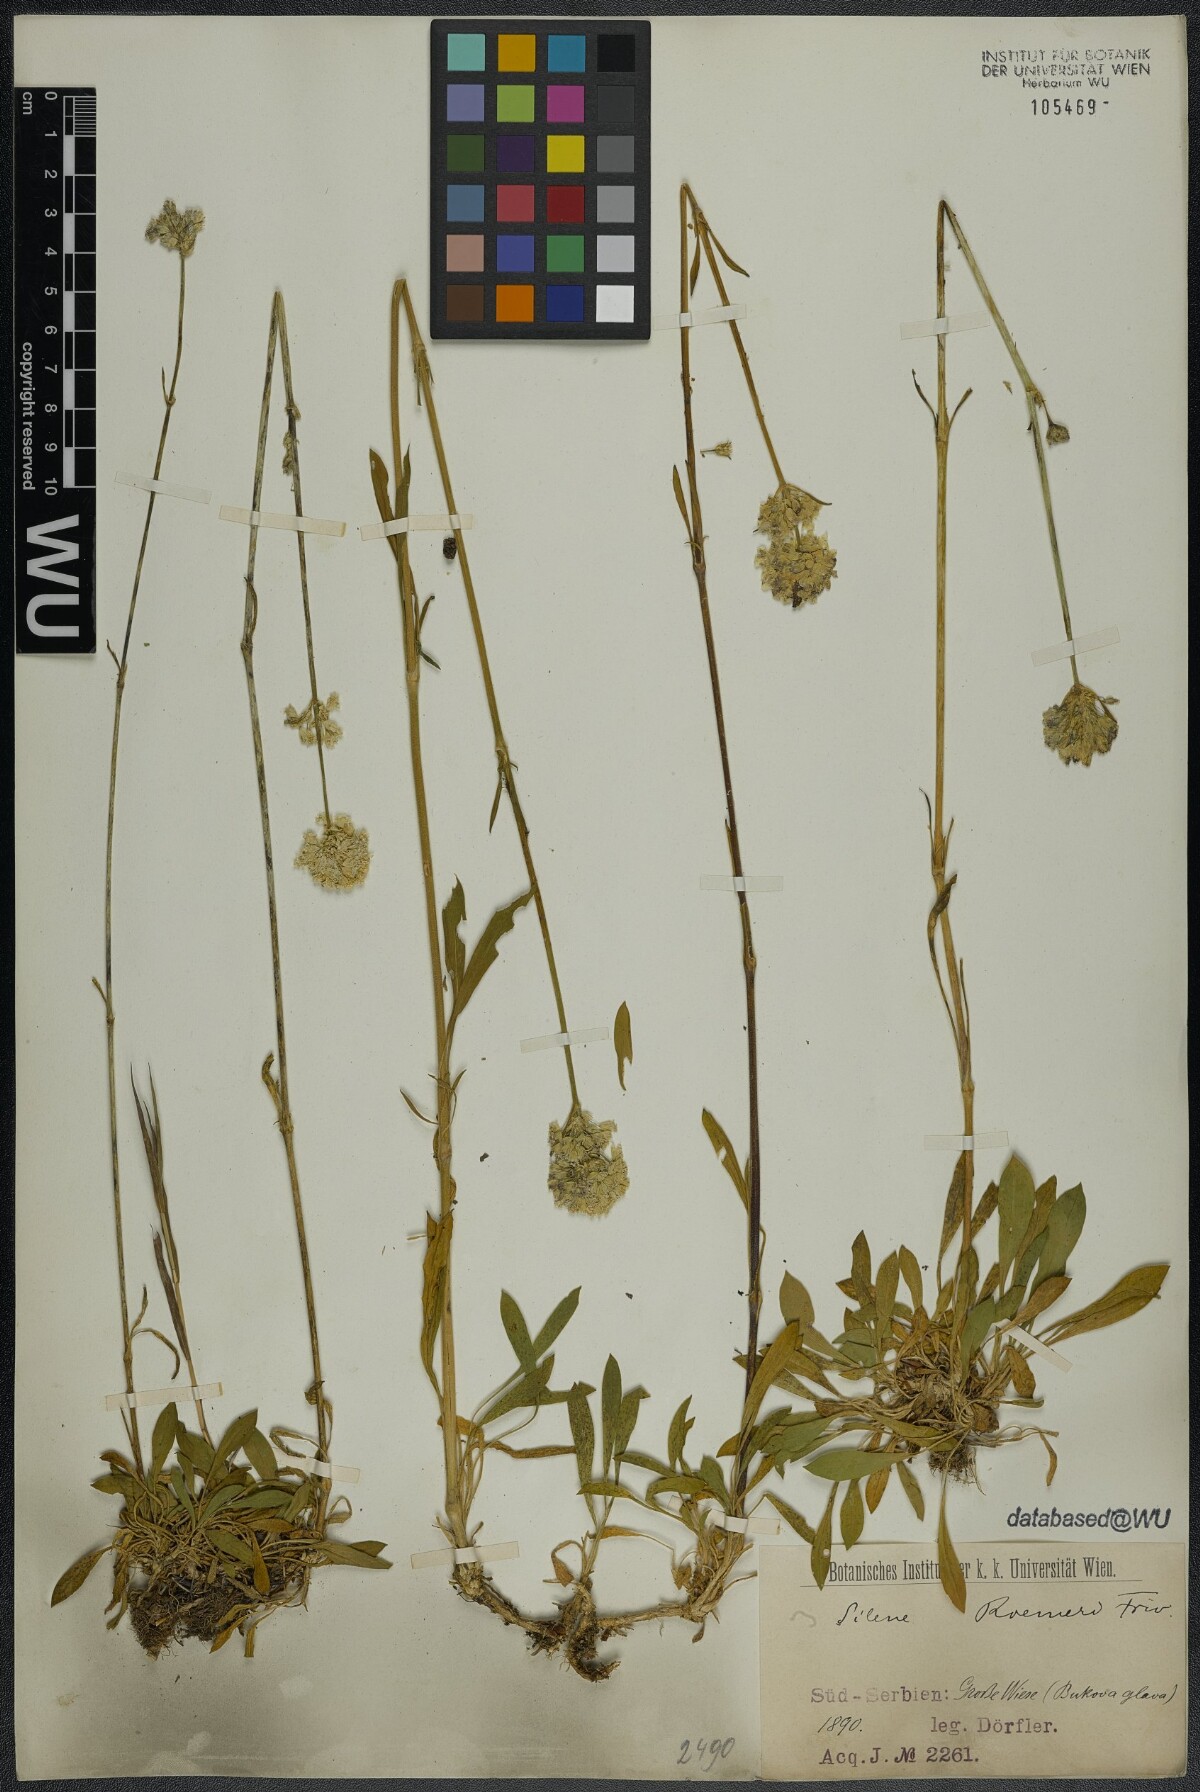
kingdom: Plantae
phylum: Tracheophyta
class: Magnoliopsida
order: Caryophyllales
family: Caryophyllaceae
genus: Silene
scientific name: Silene roemeri
